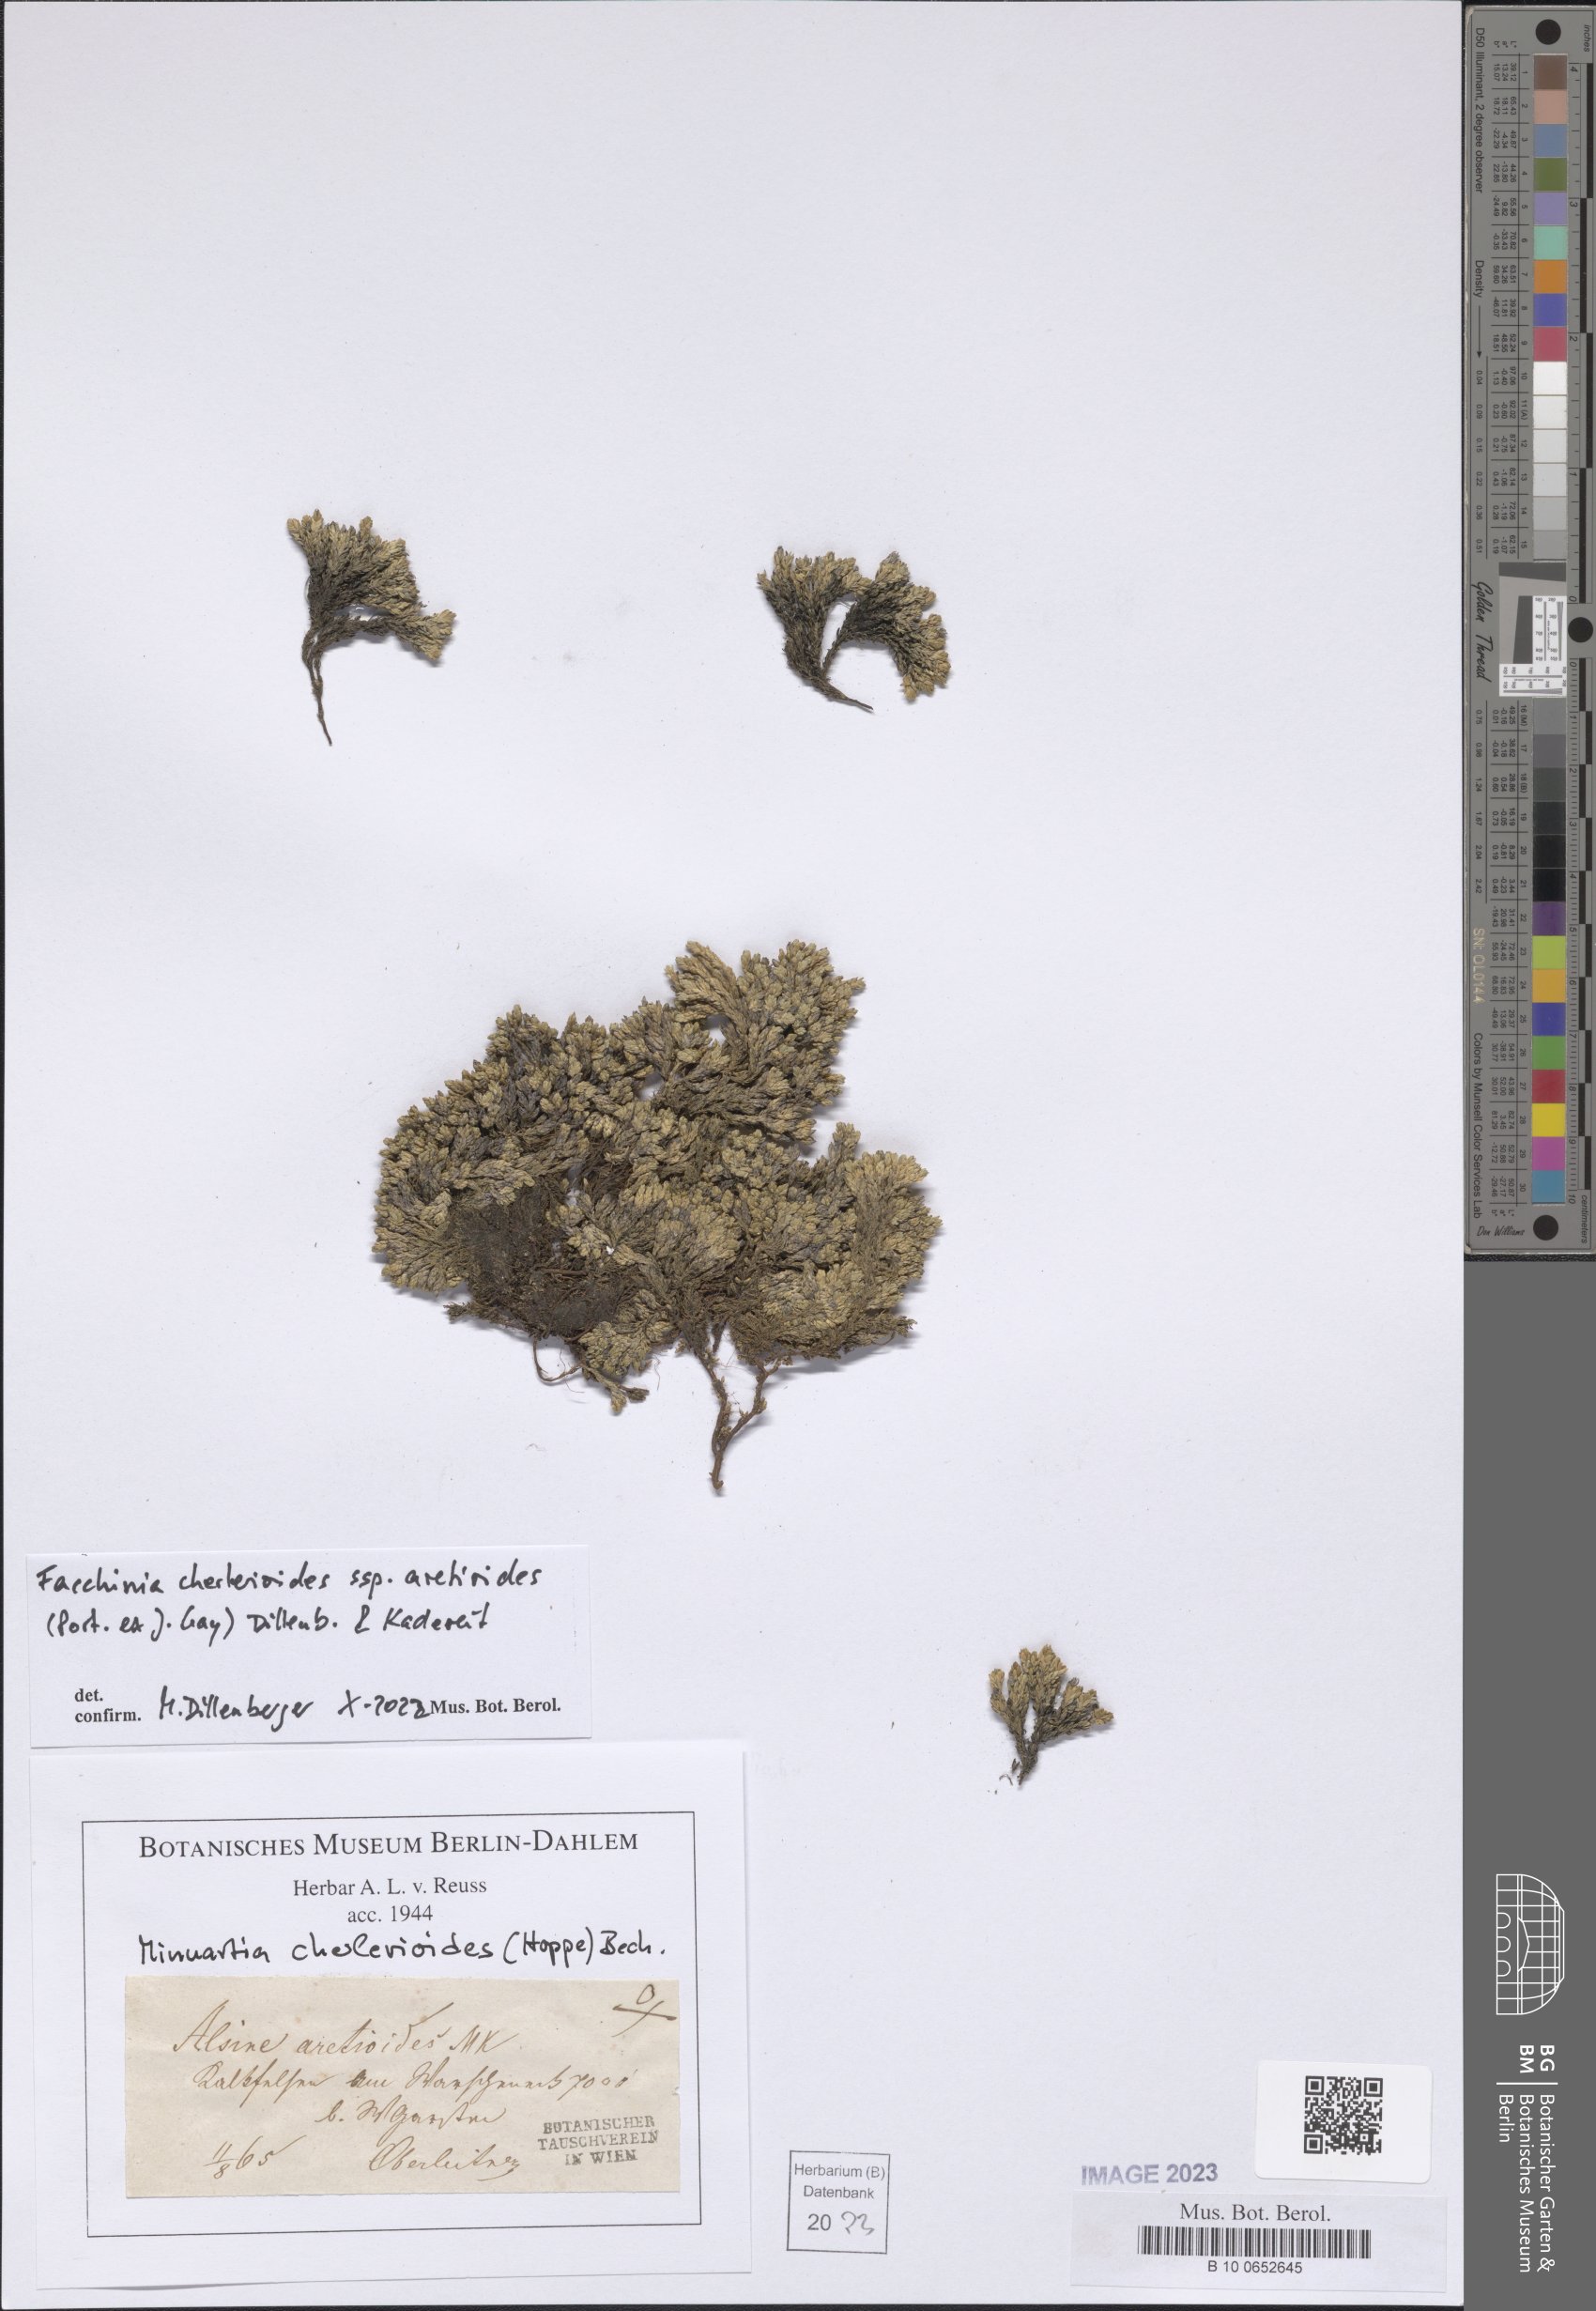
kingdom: Plantae
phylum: Tracheophyta
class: Magnoliopsida
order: Caryophyllales
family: Caryophyllaceae
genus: Facchinia
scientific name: Facchinia cherlerioides
